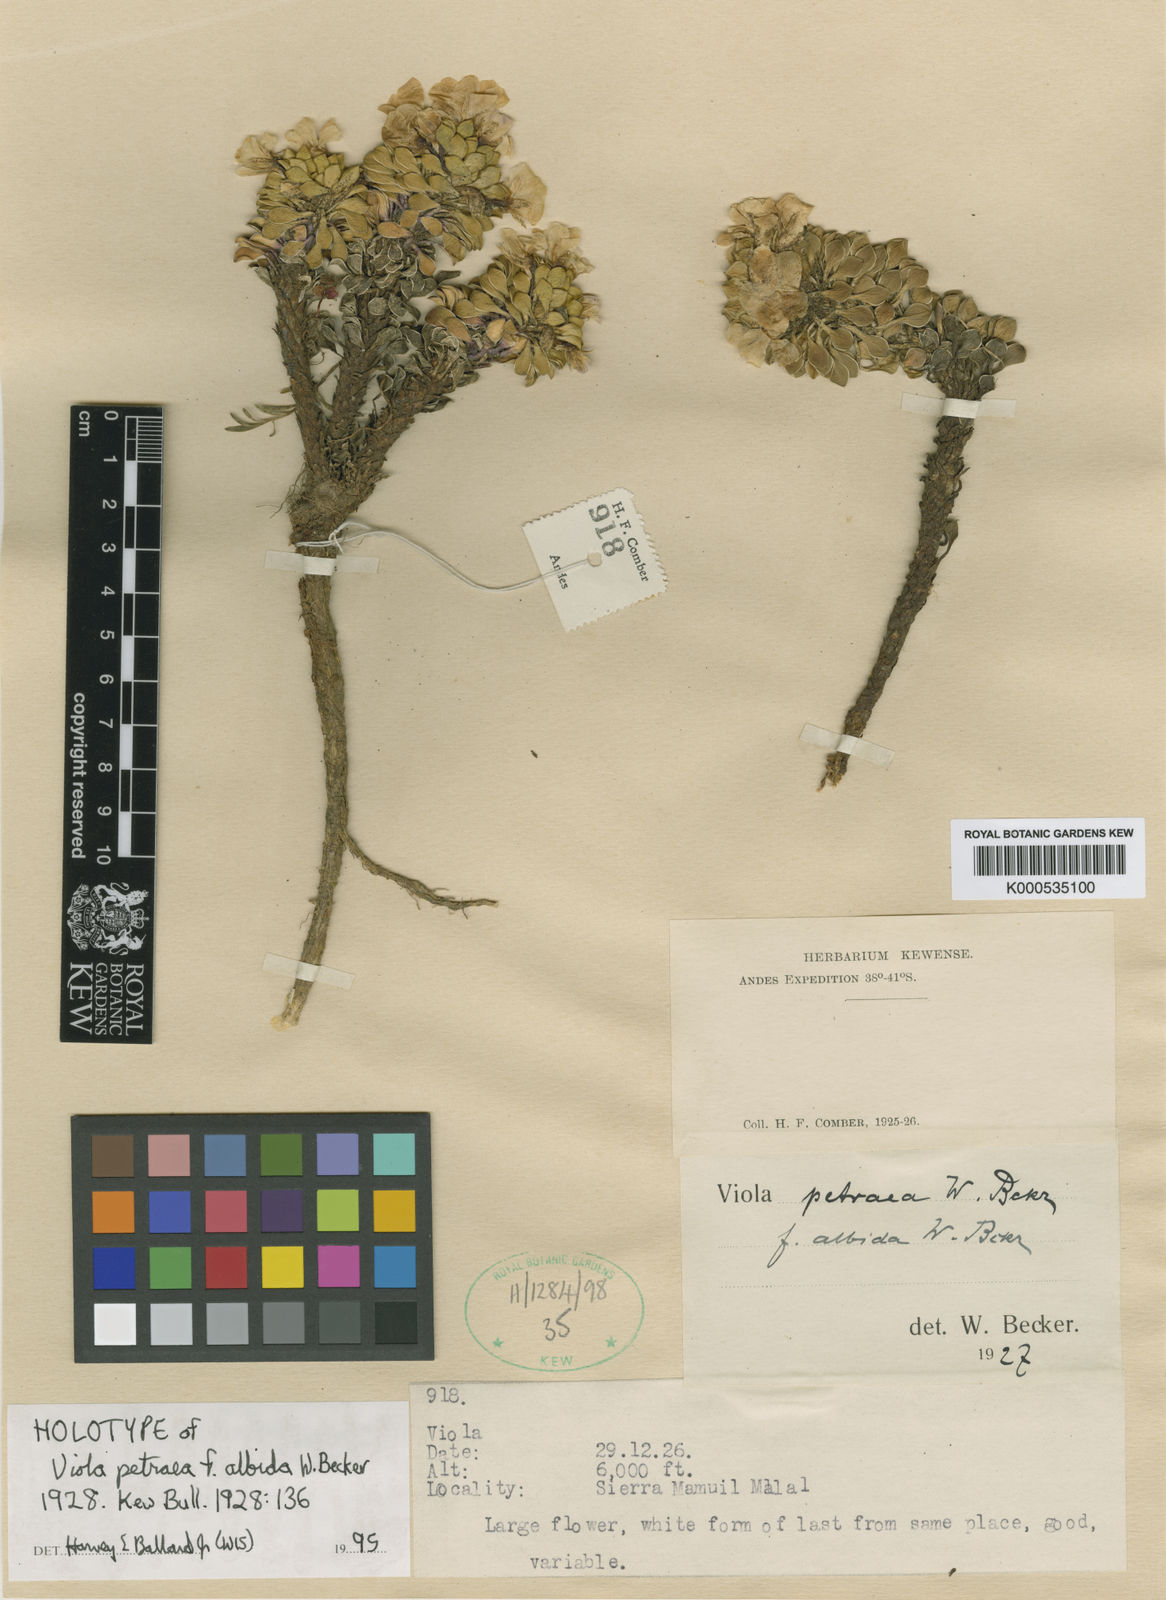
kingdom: Plantae
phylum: Tracheophyta
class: Magnoliopsida
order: Malpighiales
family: Violaceae
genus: Viola
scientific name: Viola petraea
